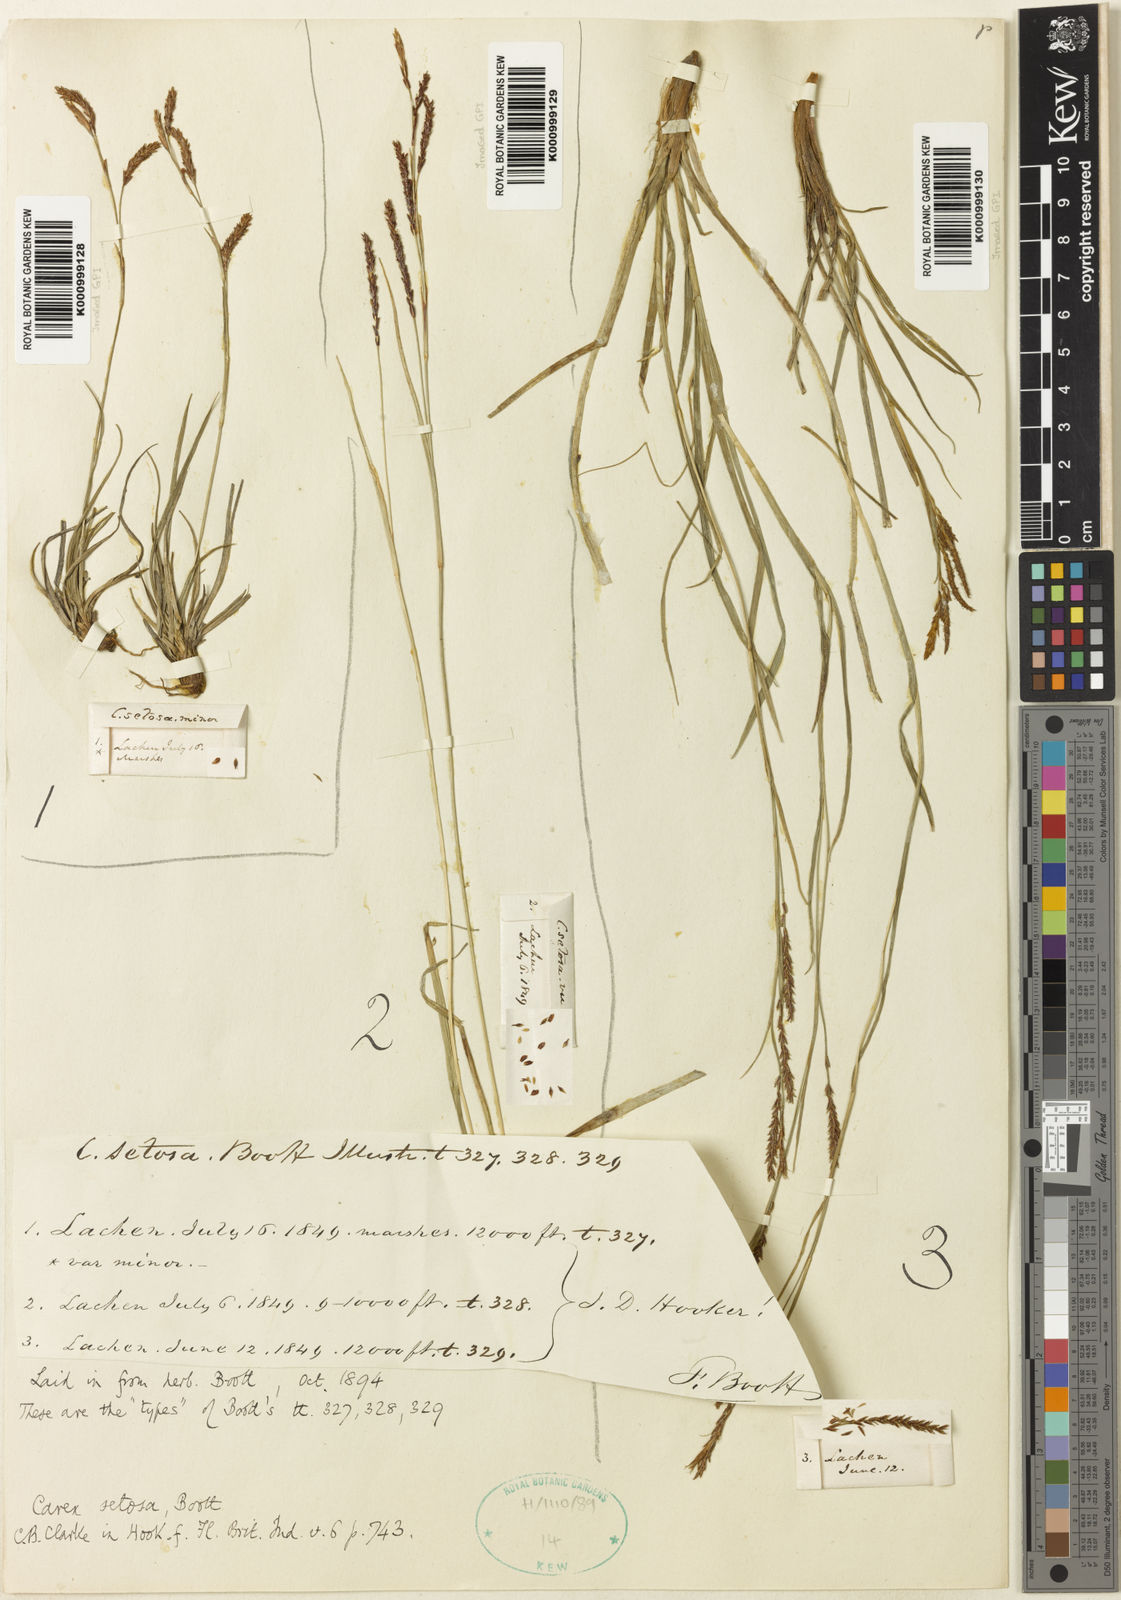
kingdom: Plantae
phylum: Tracheophyta
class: Liliopsida
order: Poales
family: Cyperaceae
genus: Carex
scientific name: Carex setosa
